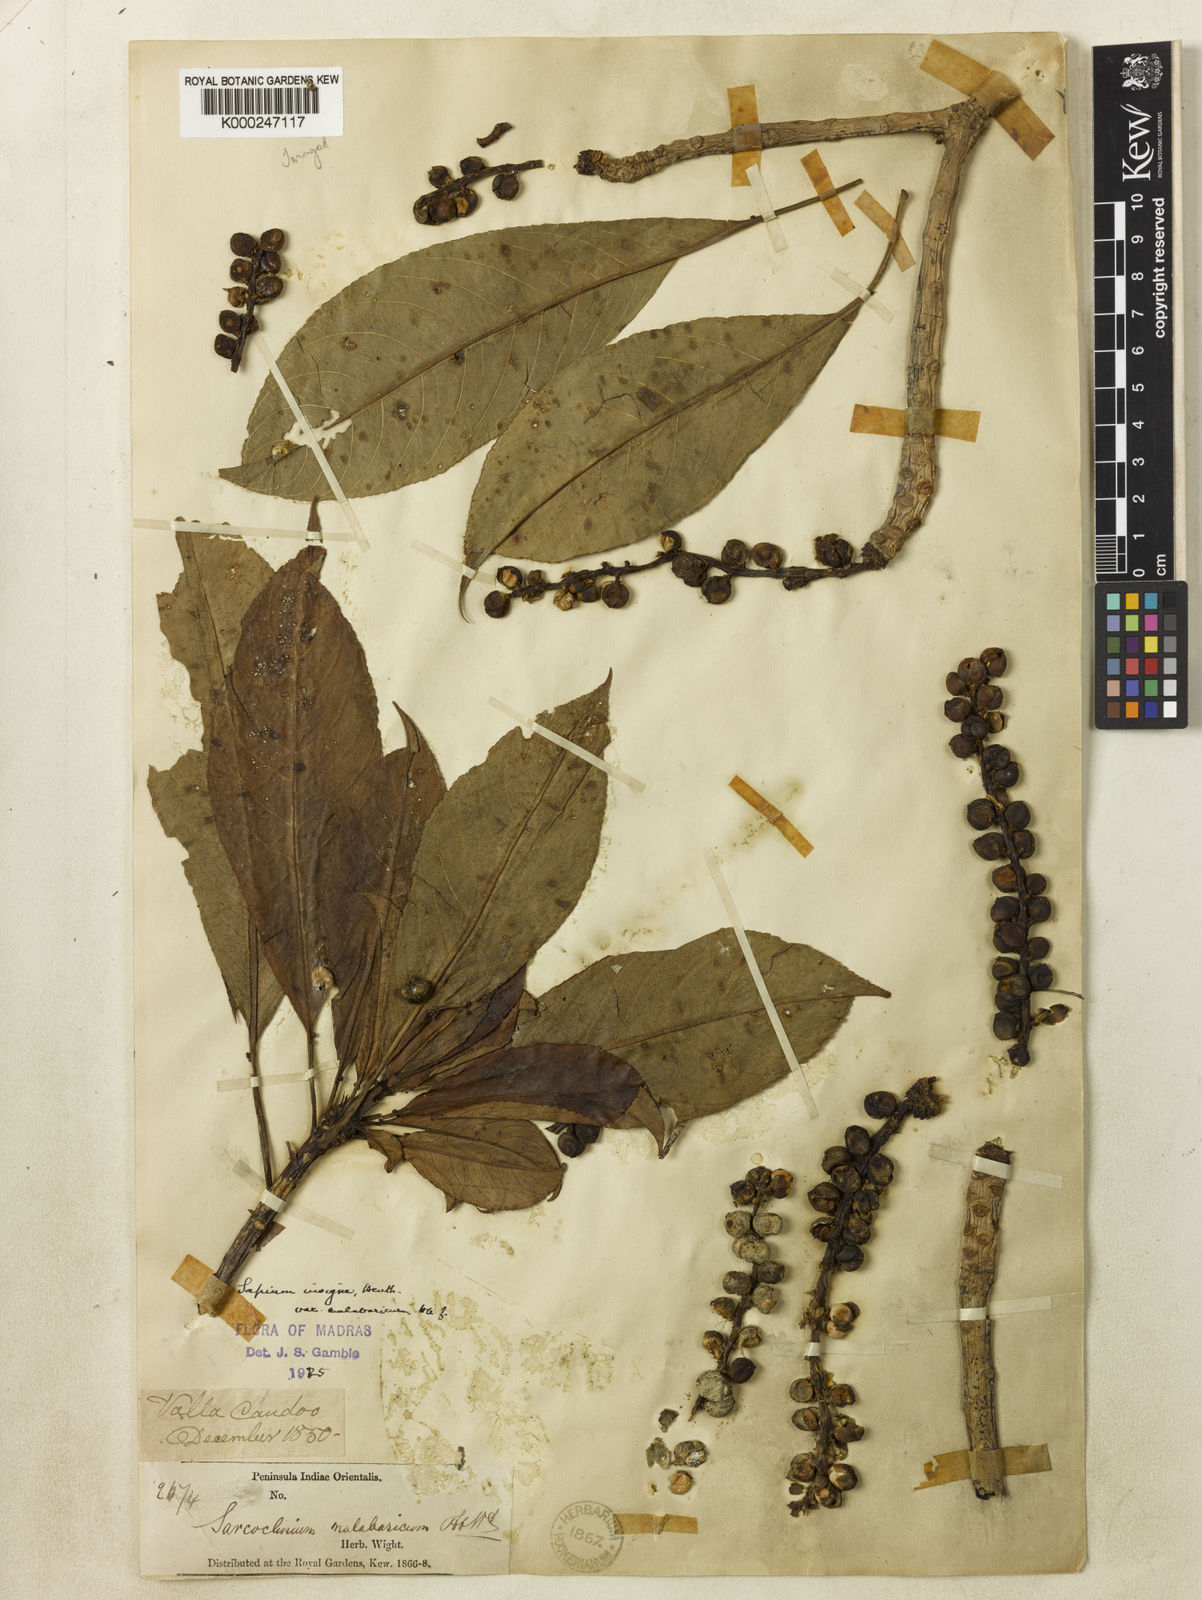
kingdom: Plantae
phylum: Tracheophyta
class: Magnoliopsida
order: Malpighiales
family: Euphorbiaceae
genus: Falconeria
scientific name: Falconeria insignis
